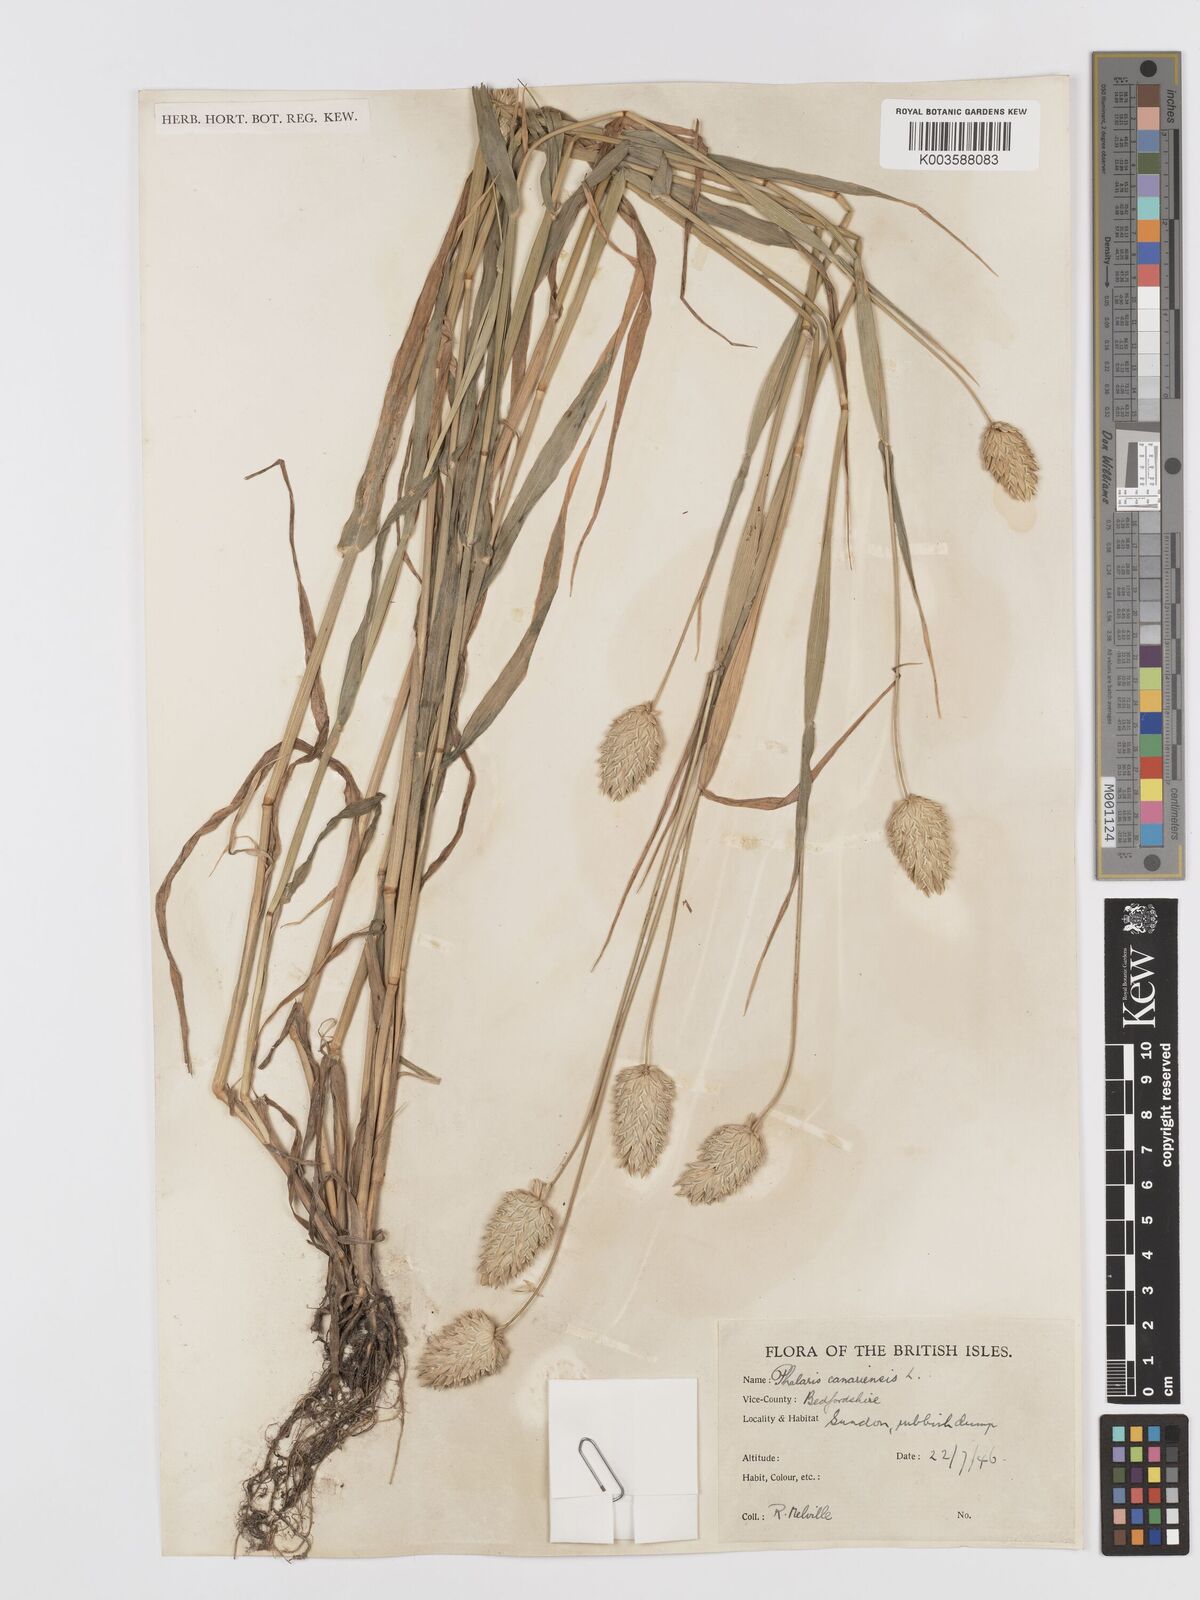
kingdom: Plantae
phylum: Tracheophyta
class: Liliopsida
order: Poales
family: Poaceae
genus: Phalaris
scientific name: Phalaris canariensis
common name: Annual canarygrass
